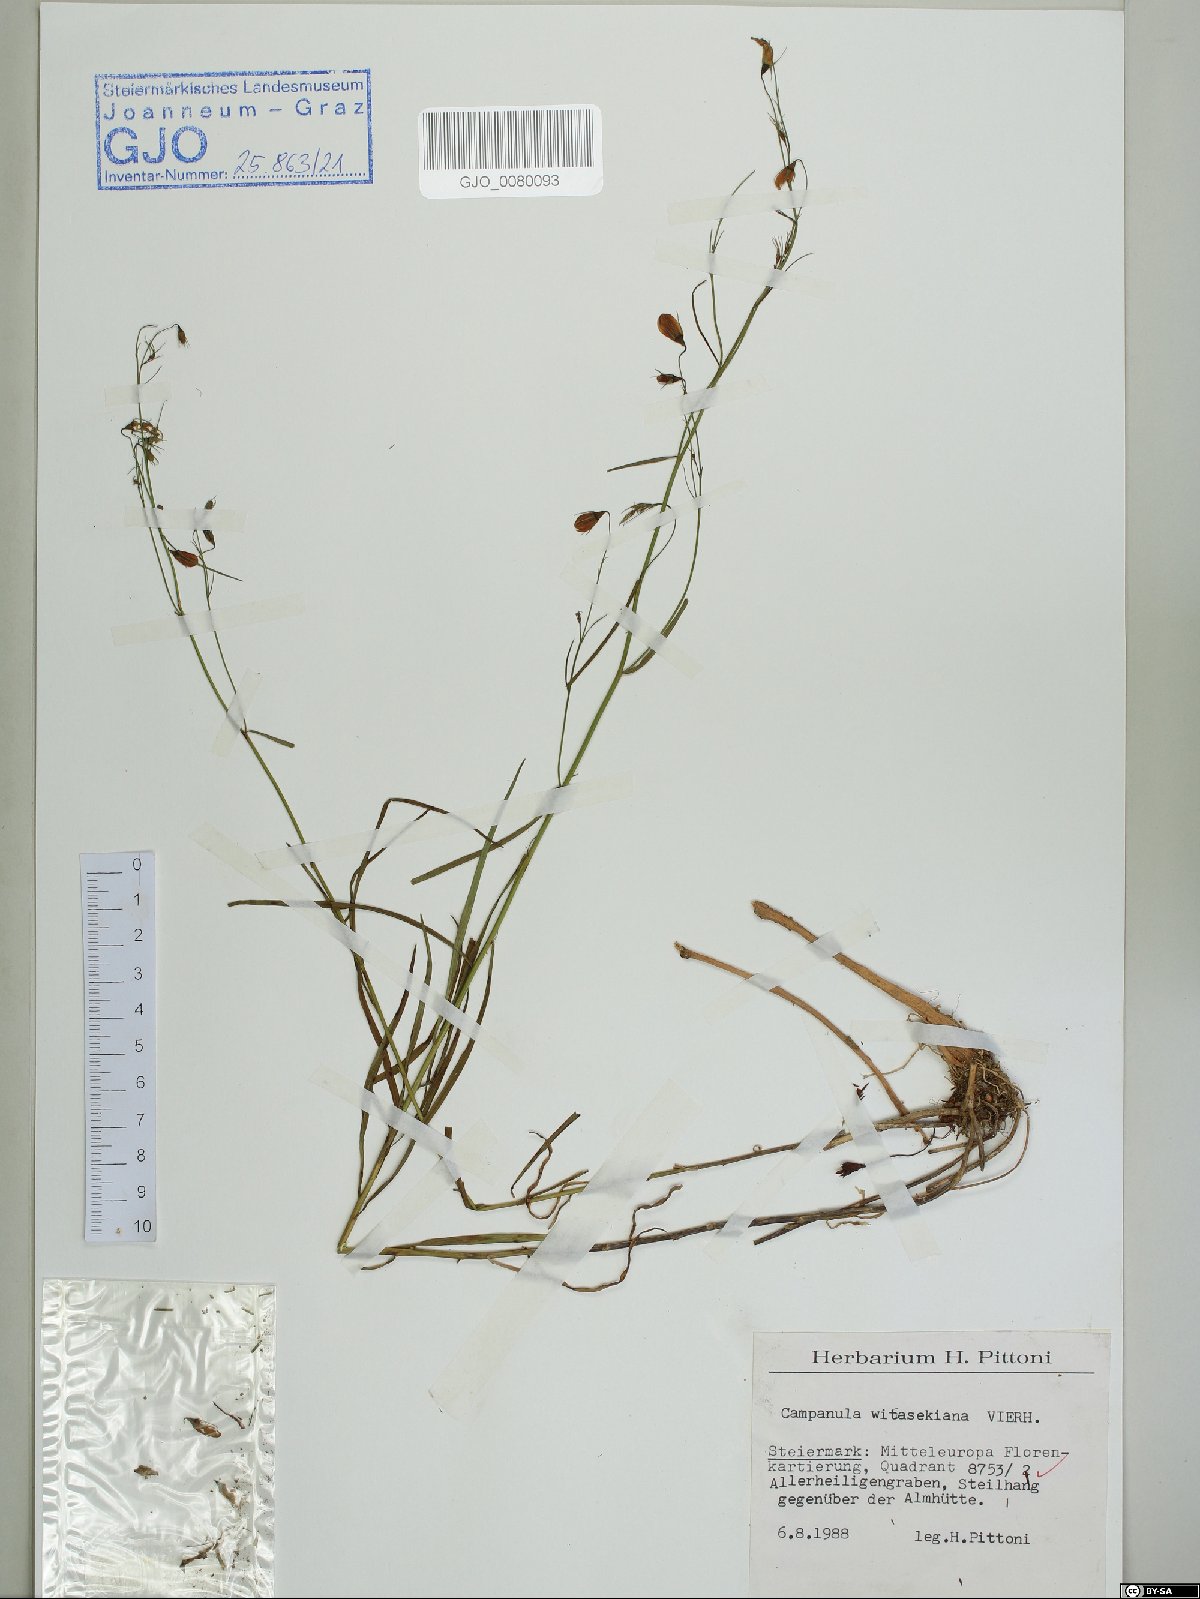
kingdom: Plantae
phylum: Tracheophyta
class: Magnoliopsida
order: Asterales
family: Campanulaceae
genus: Campanula
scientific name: Campanula witasekiana
